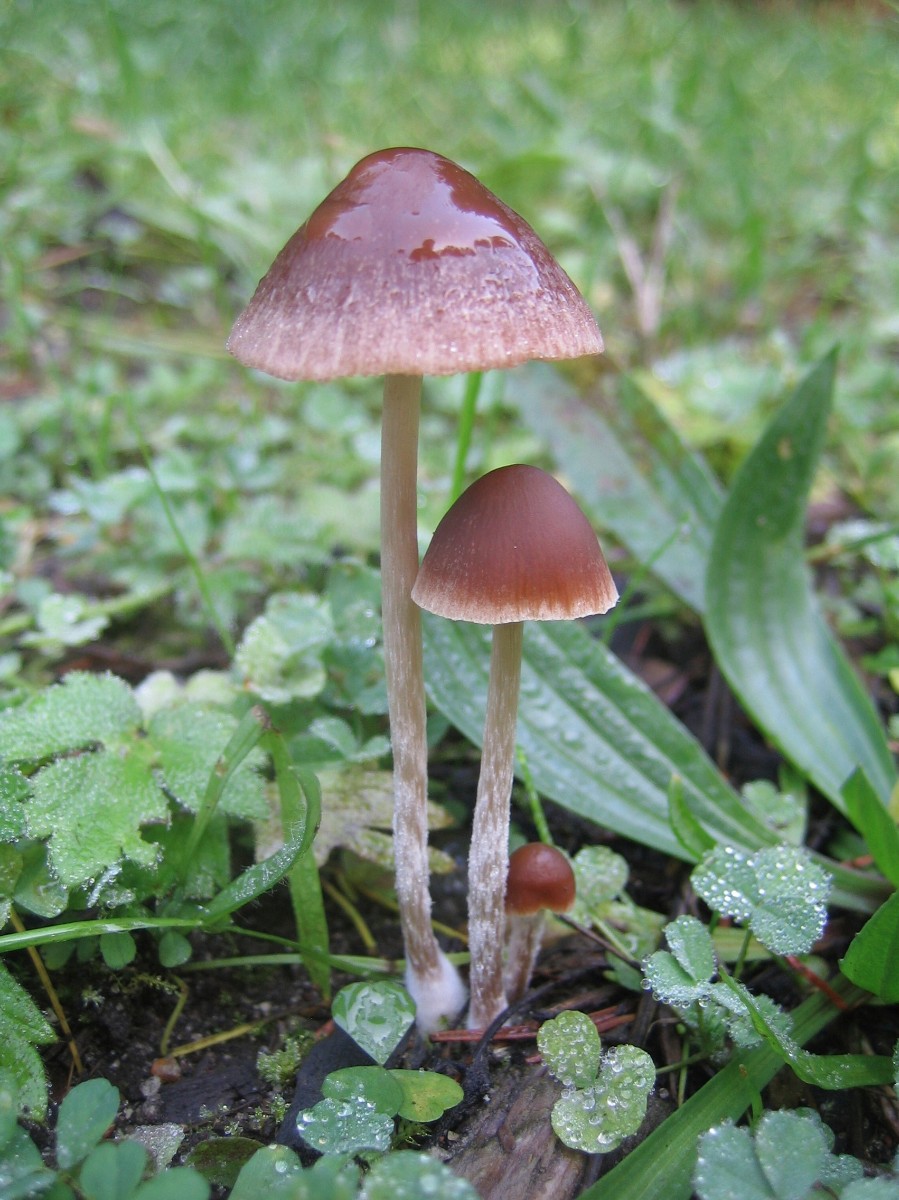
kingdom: Fungi
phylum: Basidiomycota
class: Agaricomycetes
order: Agaricales
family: Psathyrellaceae
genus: Psathyrella
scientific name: Psathyrella
